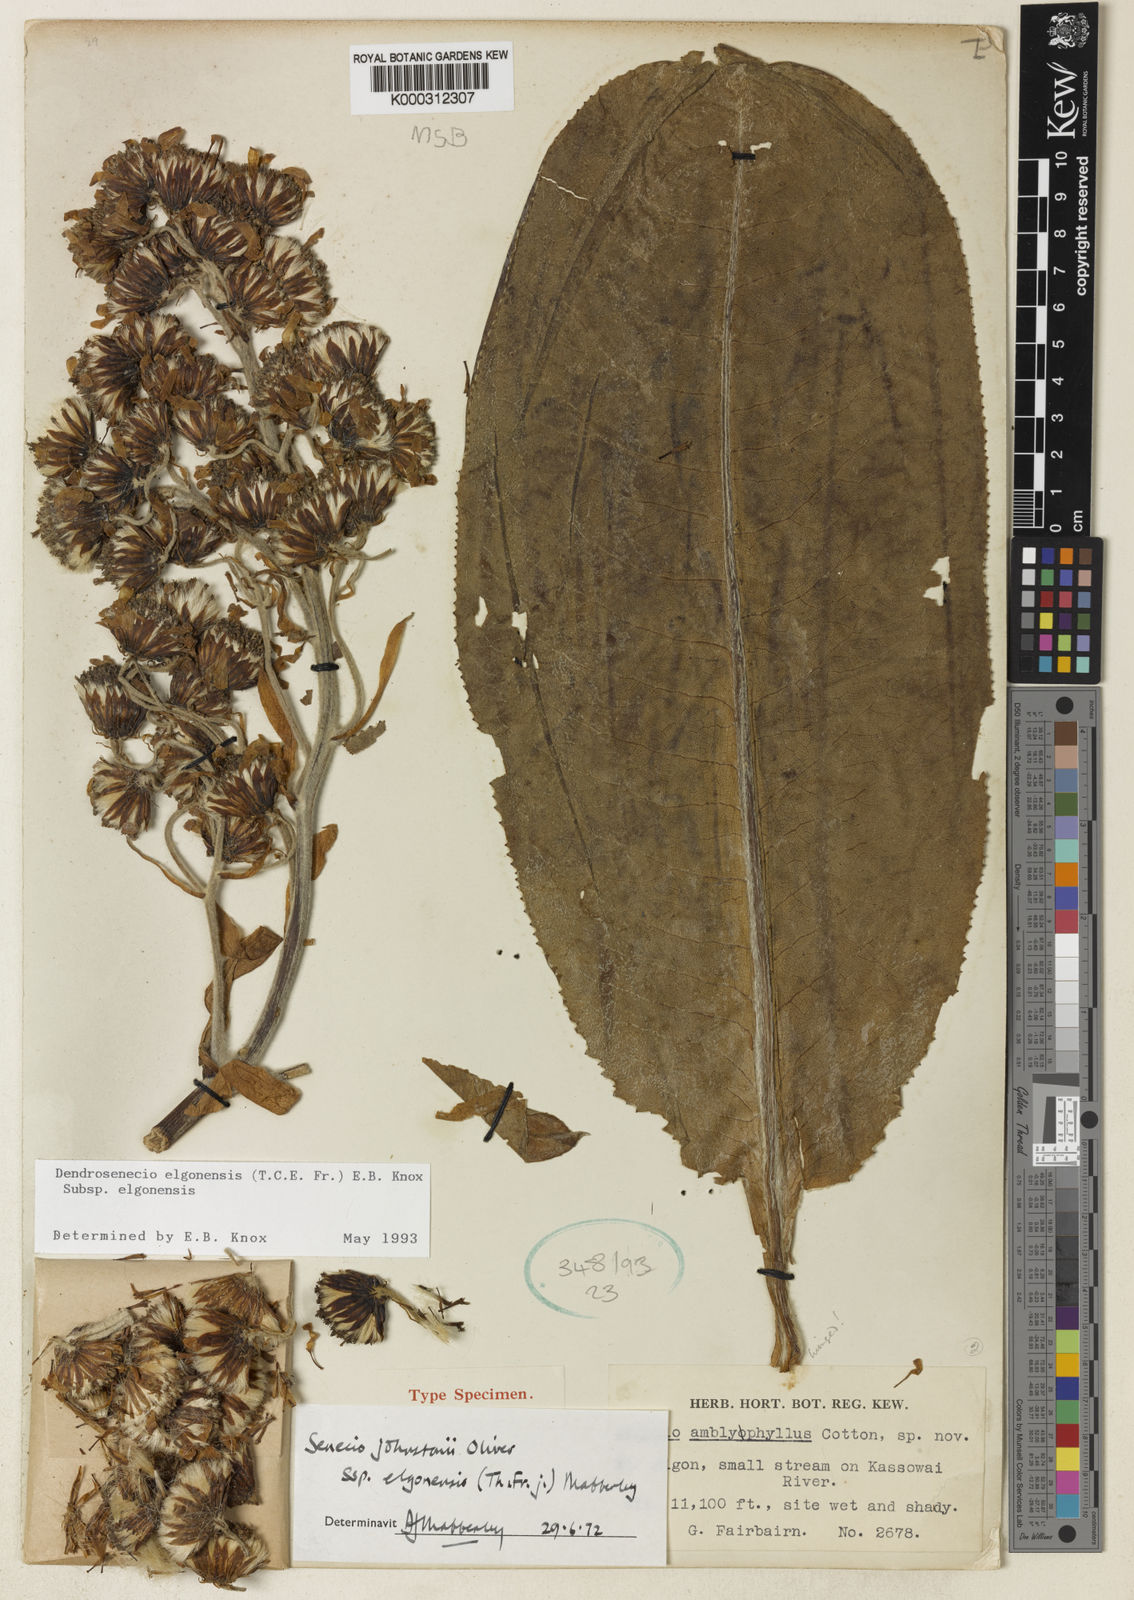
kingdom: Plantae
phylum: Tracheophyta
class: Magnoliopsida
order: Asterales
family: Asteraceae
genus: Dendrosenecio
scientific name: Dendrosenecio elgonensis
